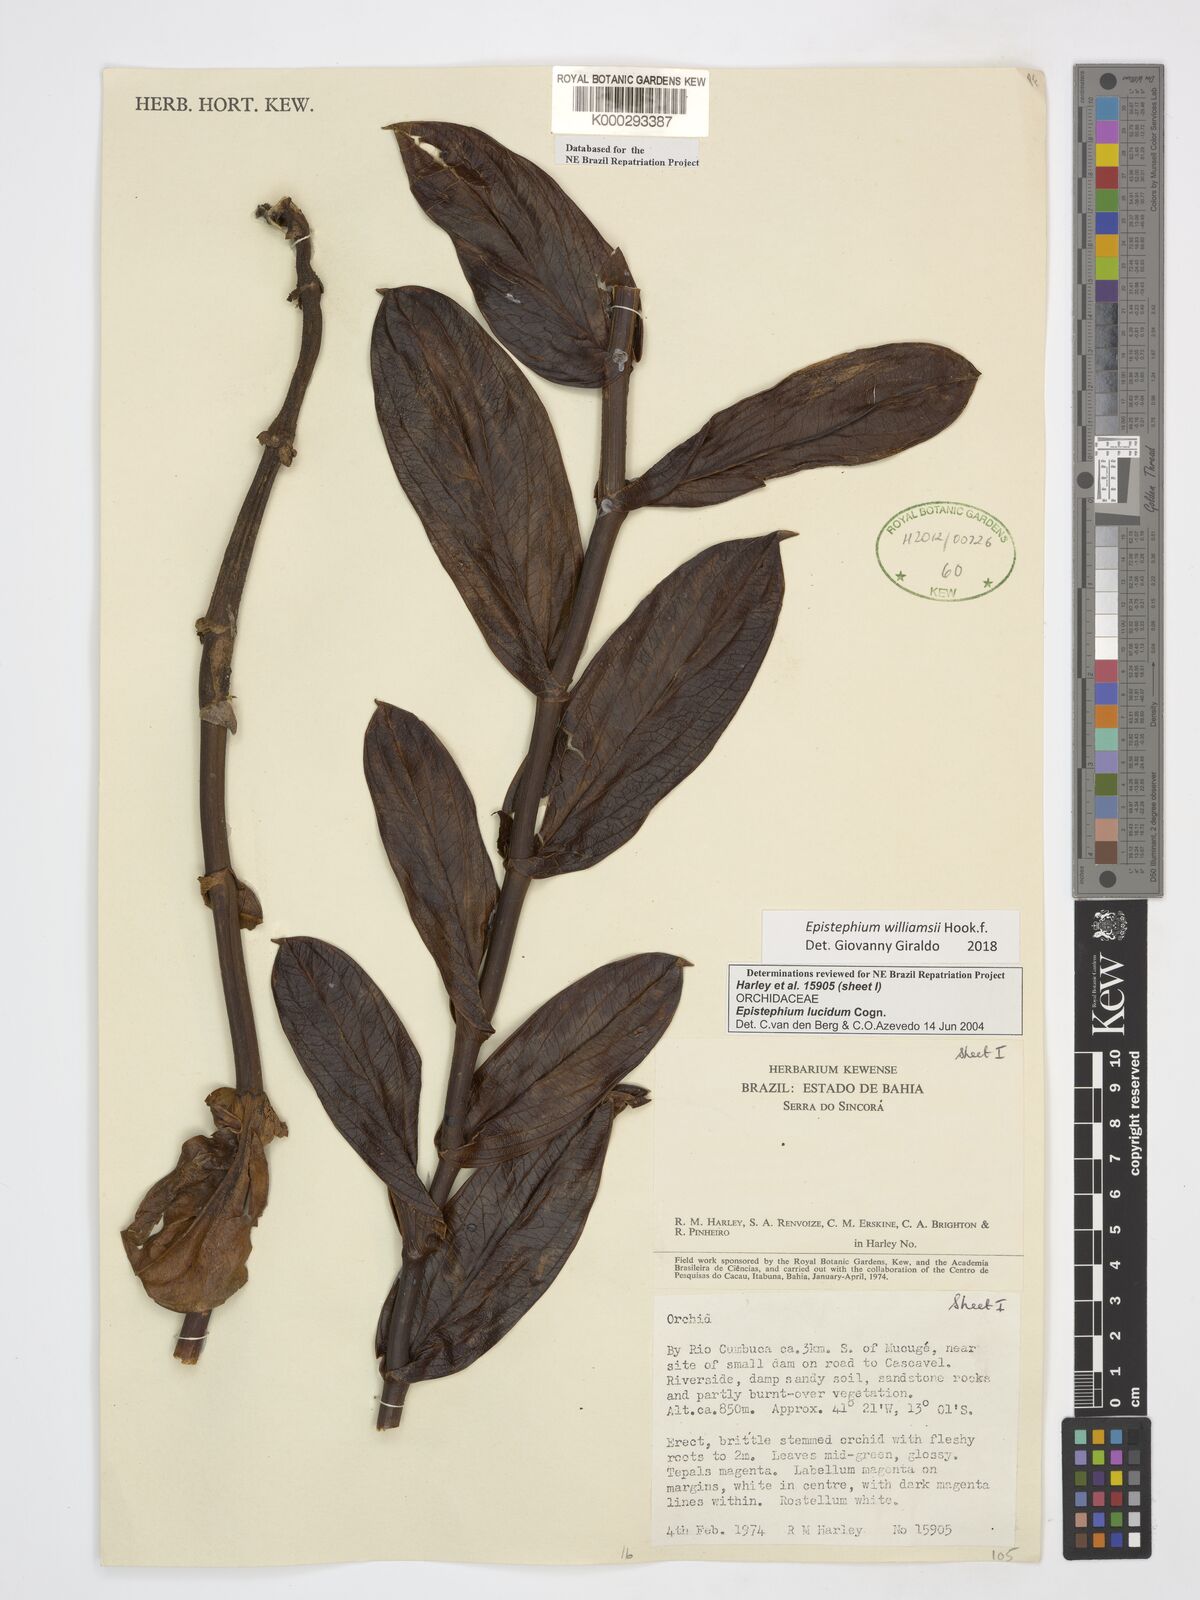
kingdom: Plantae
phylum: Tracheophyta
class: Liliopsida
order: Asparagales
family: Orchidaceae
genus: Epistephium
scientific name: Epistephium williamsii
